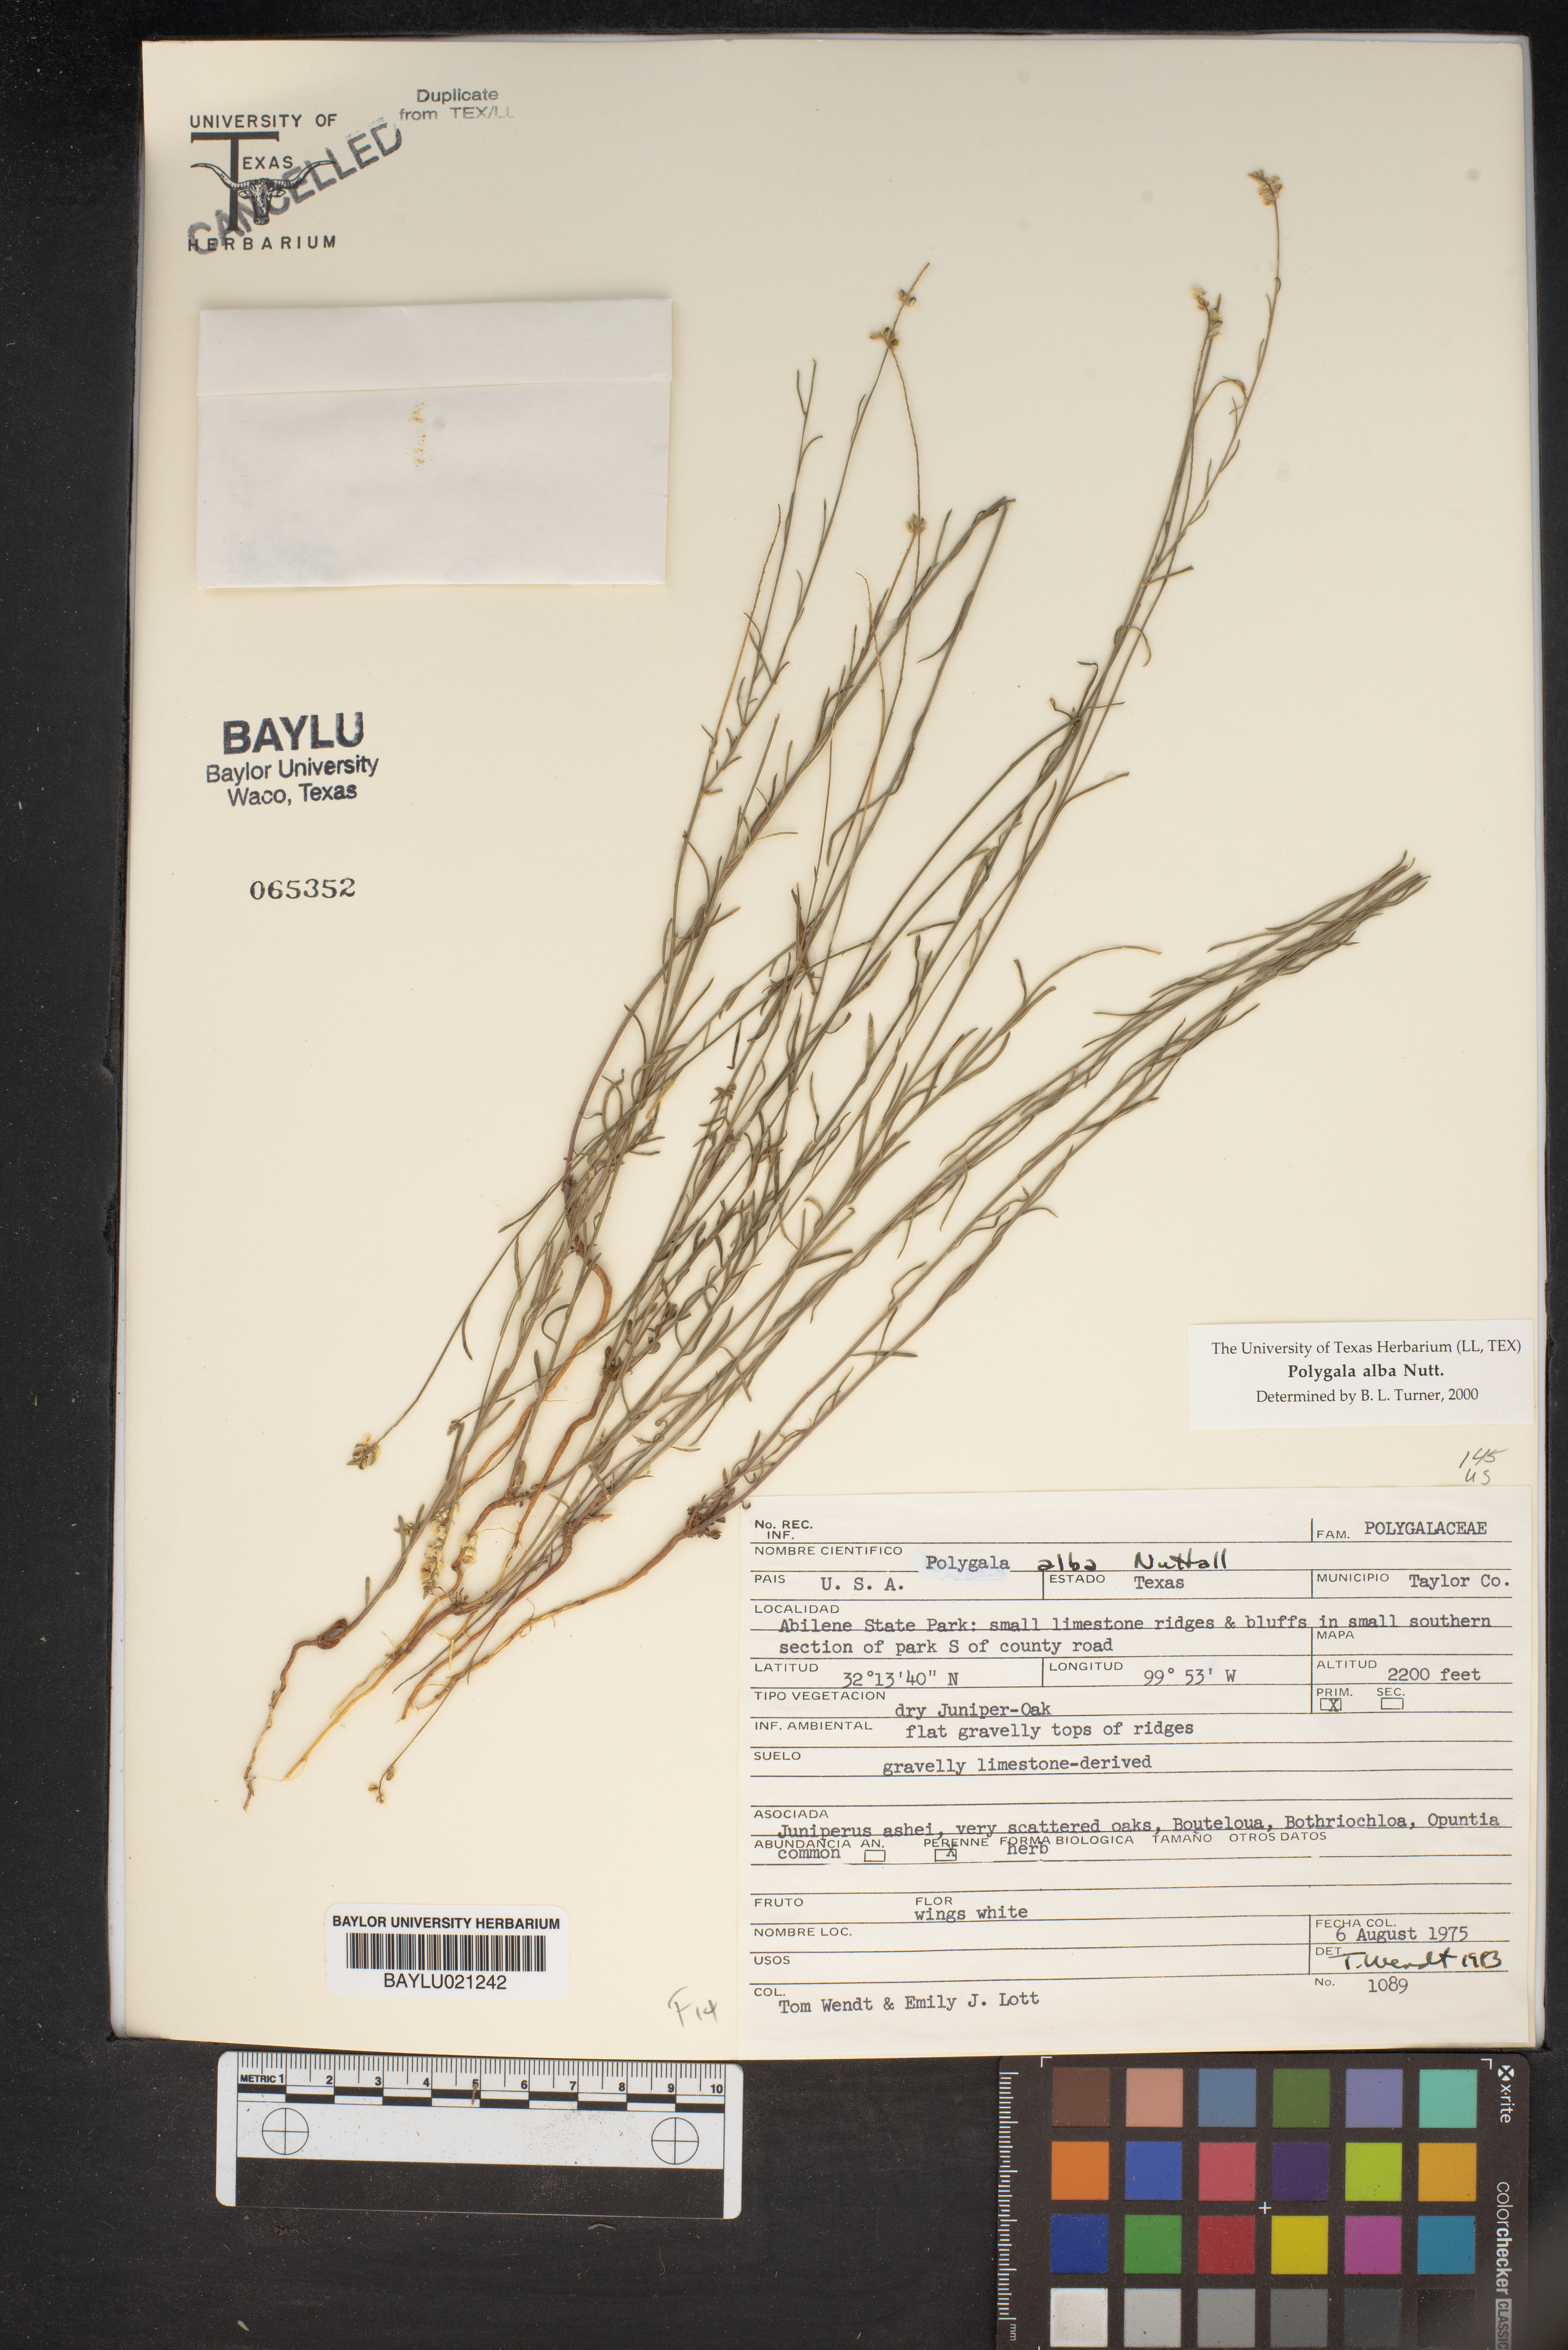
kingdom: Plantae
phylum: Tracheophyta
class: Magnoliopsida
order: Fabales
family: Polygalaceae
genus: Polygala
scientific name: Polygala alba
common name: White milkwort
